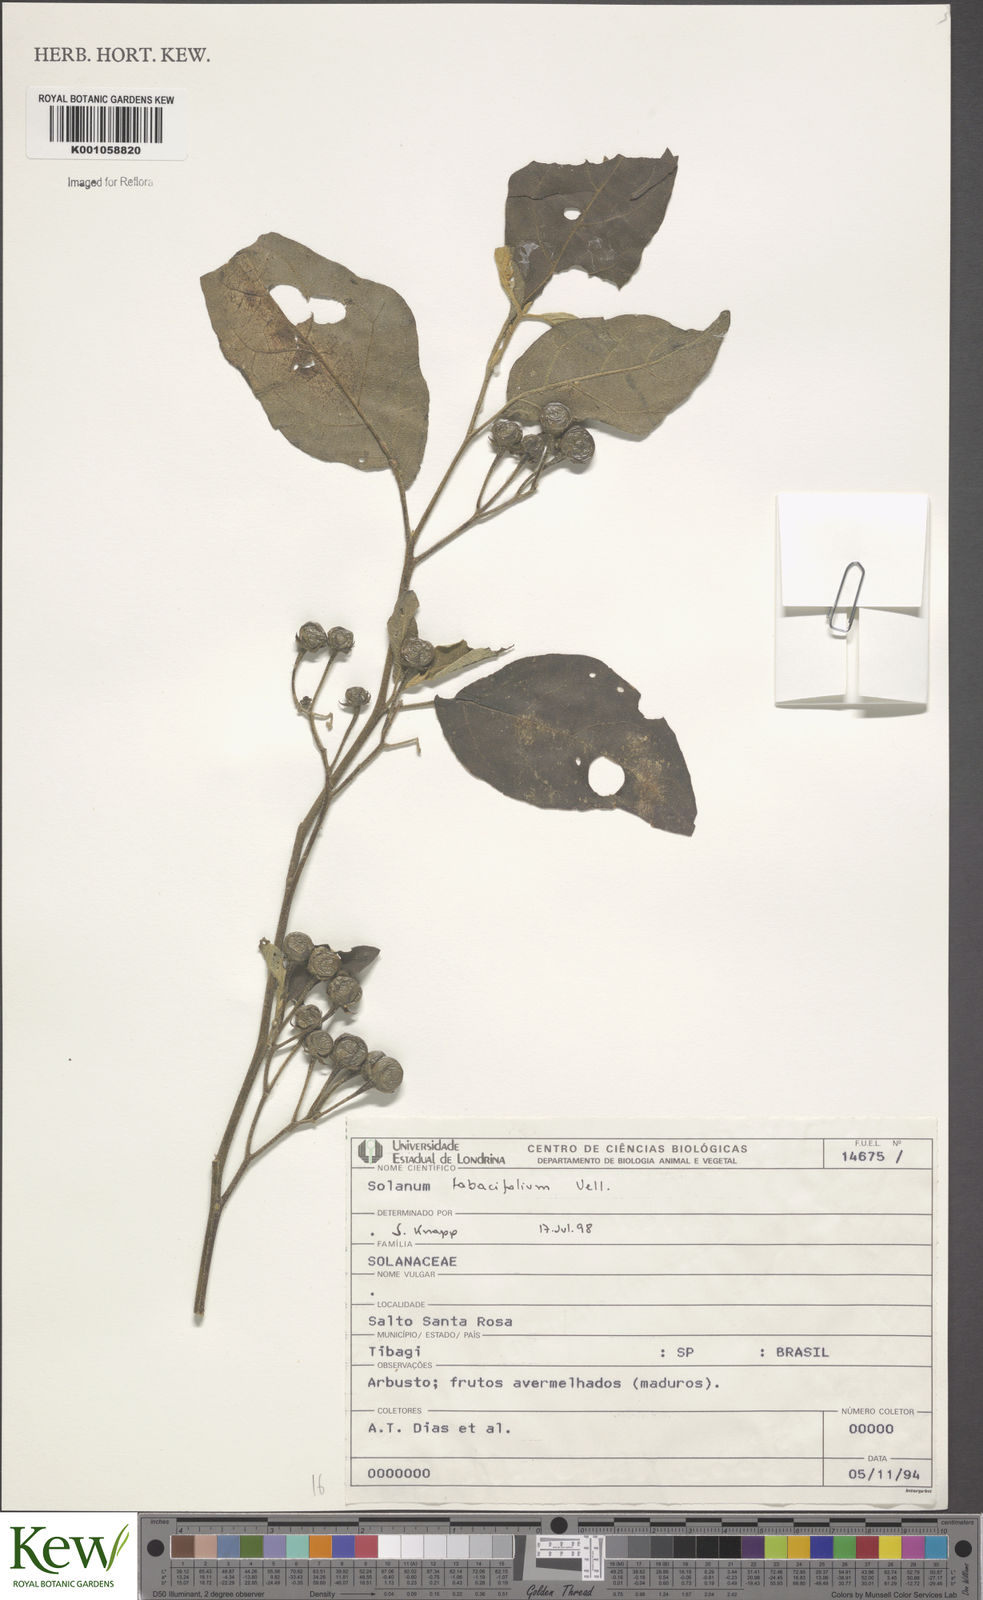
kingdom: Plantae
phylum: Tracheophyta
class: Magnoliopsida
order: Solanales
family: Solanaceae
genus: Solanum
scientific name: Solanum guaraniticum
